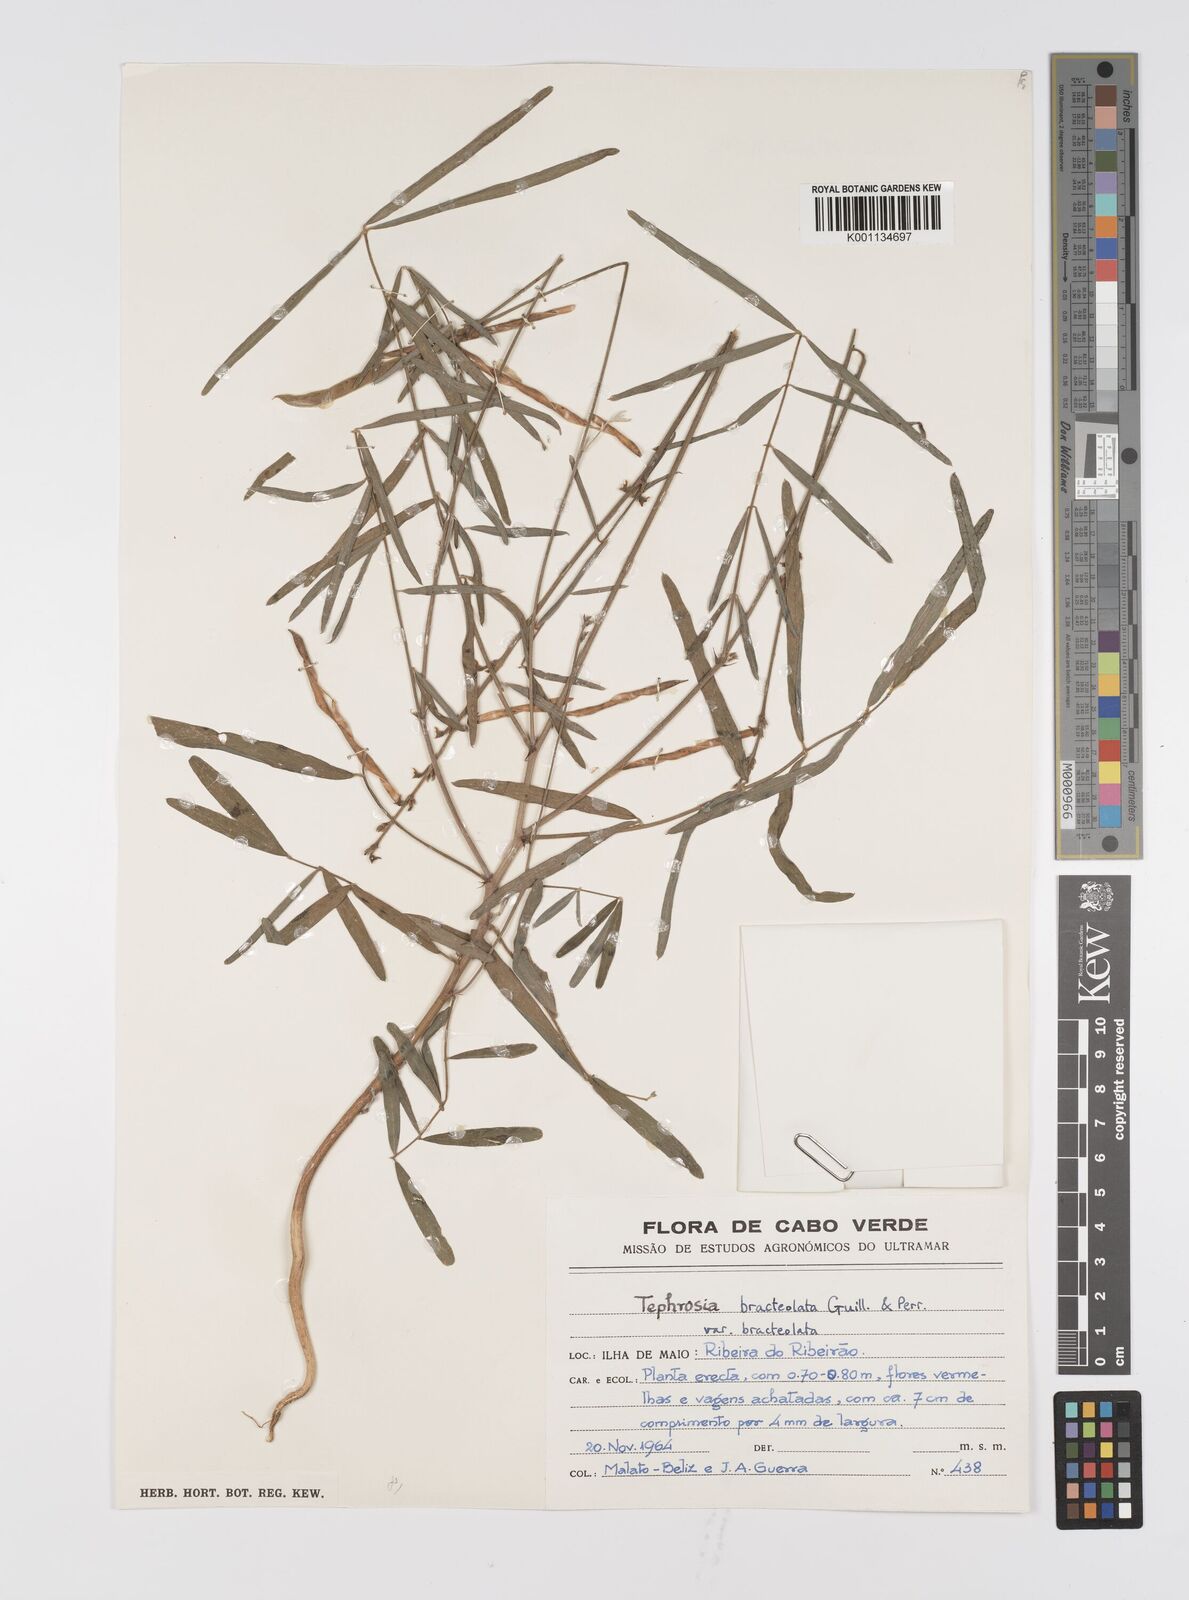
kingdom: Plantae
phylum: Tracheophyta
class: Magnoliopsida
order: Fabales
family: Fabaceae
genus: Tephrosia
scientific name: Tephrosia bracteolata
